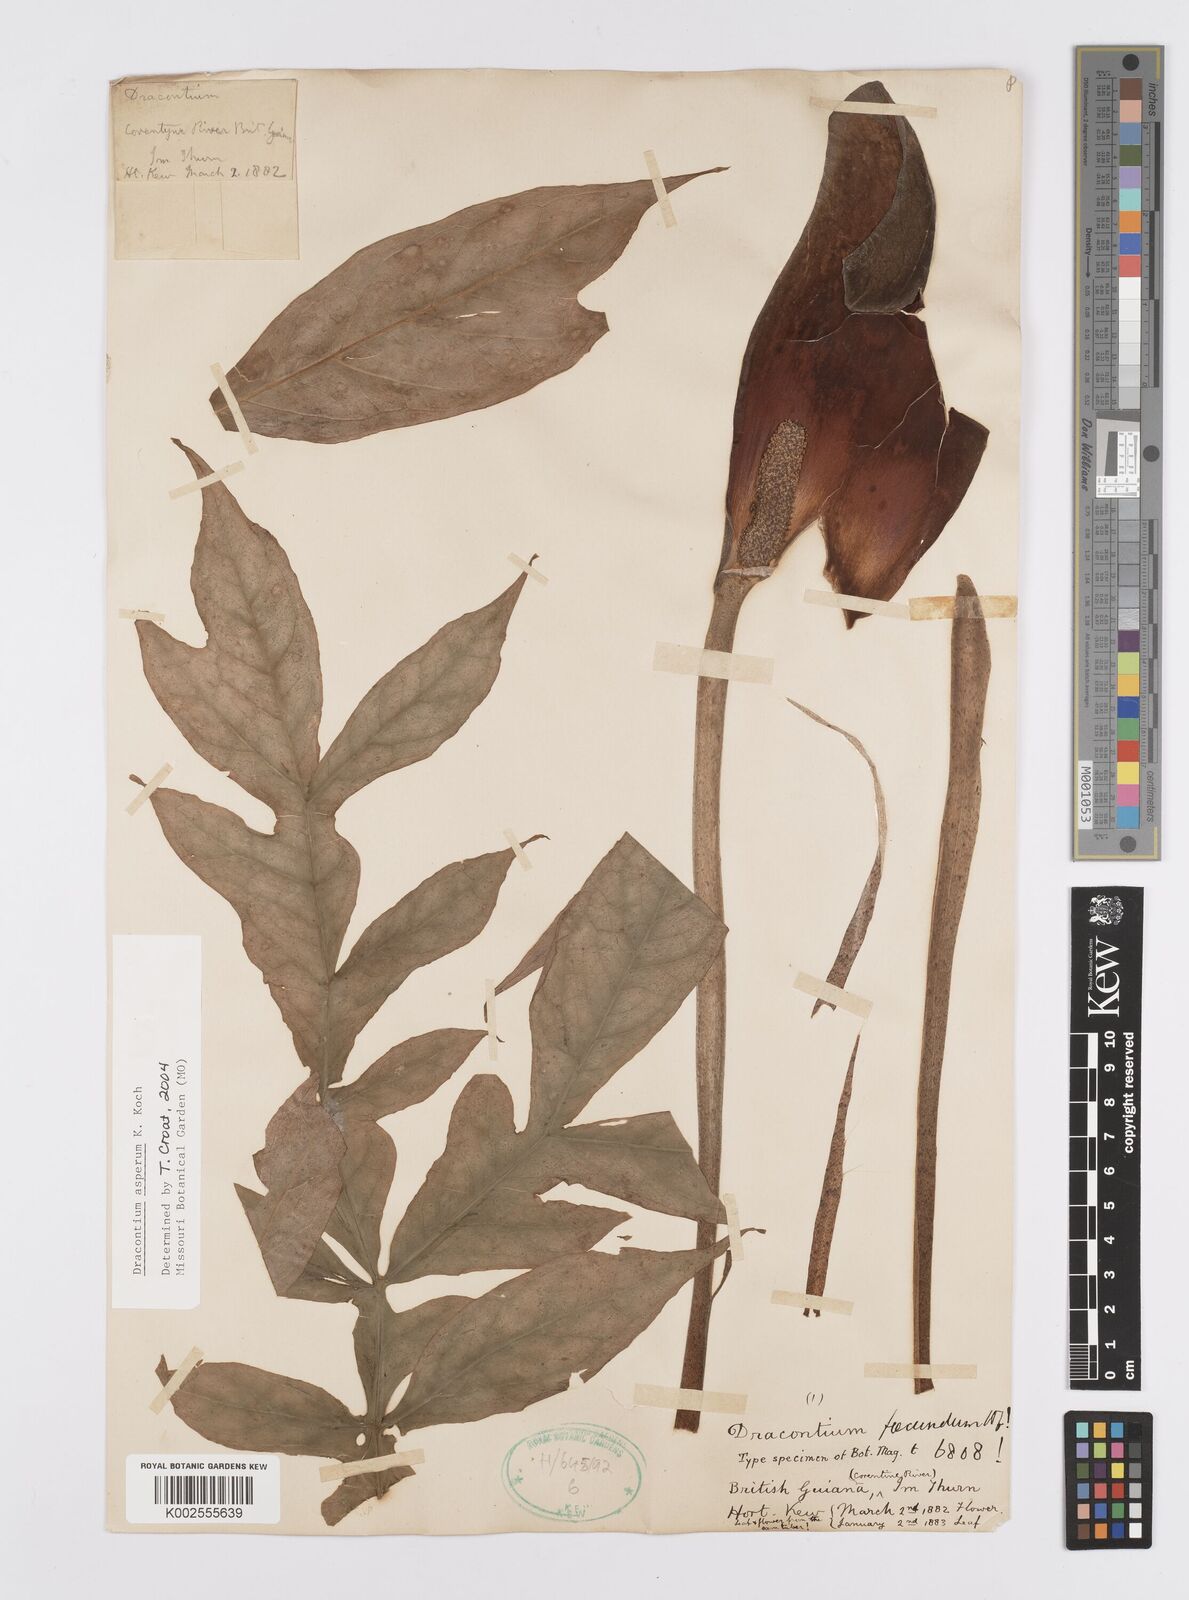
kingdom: Plantae
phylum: Tracheophyta
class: Liliopsida
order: Alismatales
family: Araceae
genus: Dracontium
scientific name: Dracontium asperum
